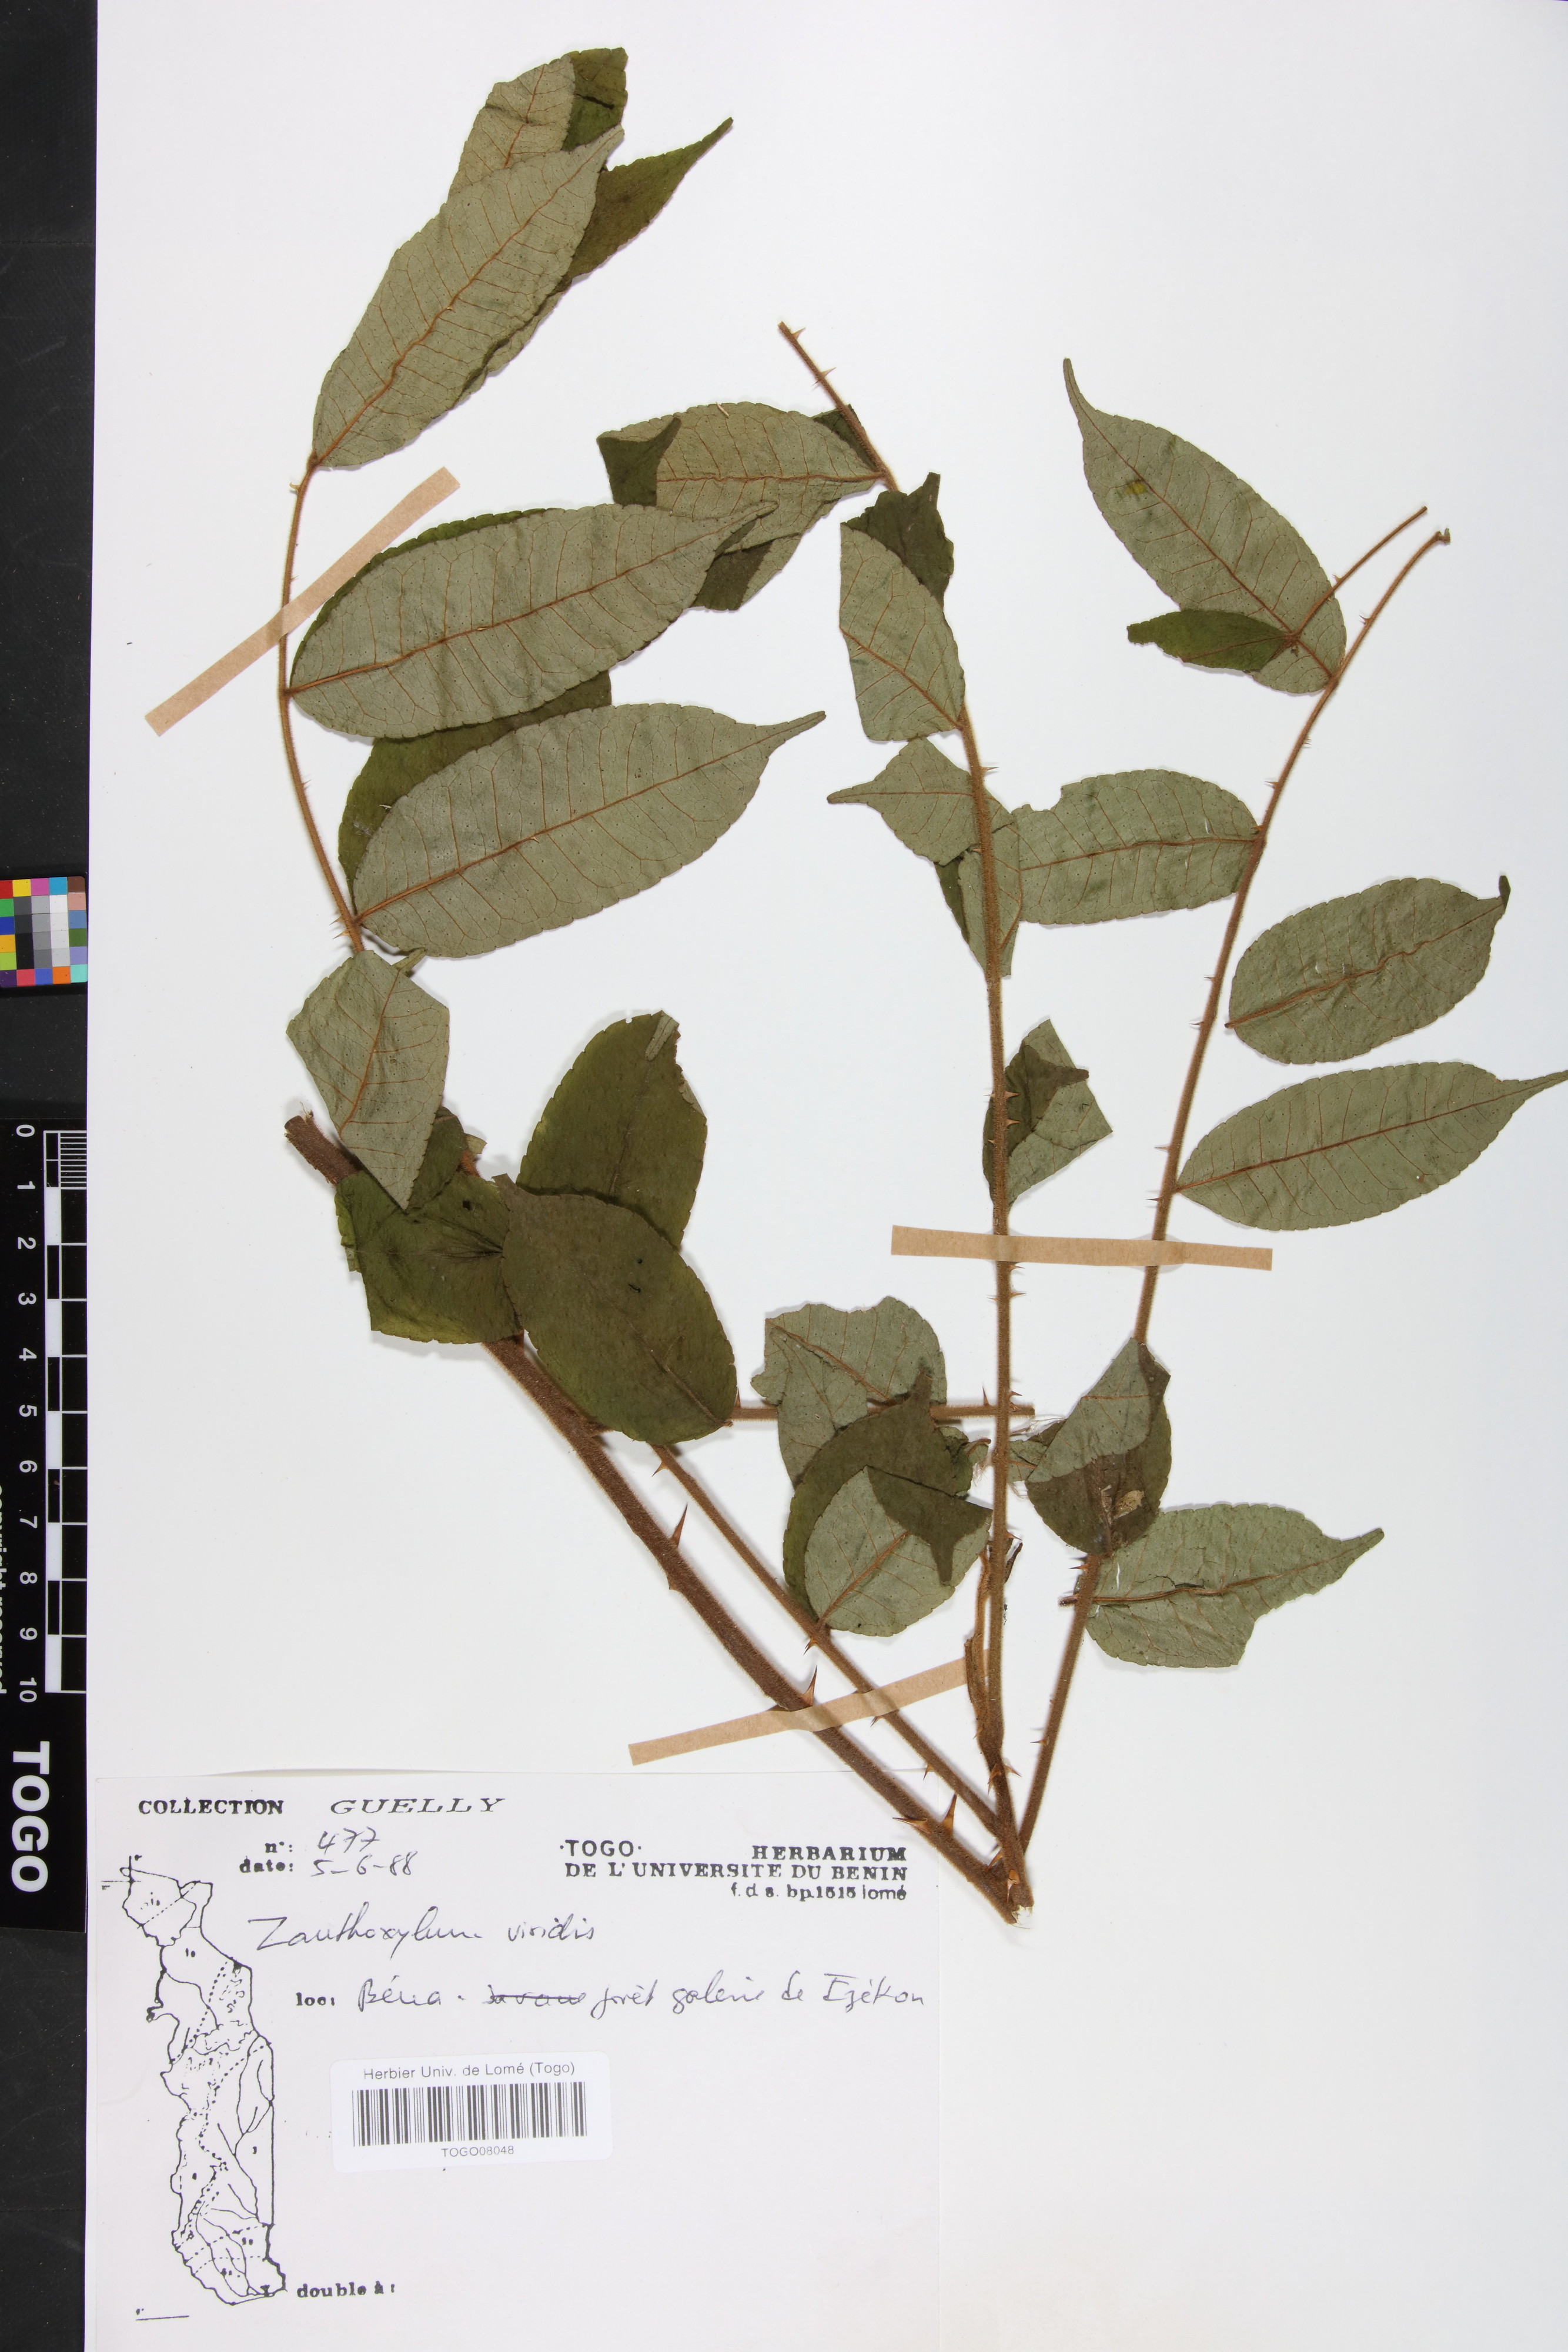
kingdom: Plantae
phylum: Tracheophyta
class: Magnoliopsida
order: Sapindales
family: Rutaceae
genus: Zanthoxylum
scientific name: Zanthoxylum viride
